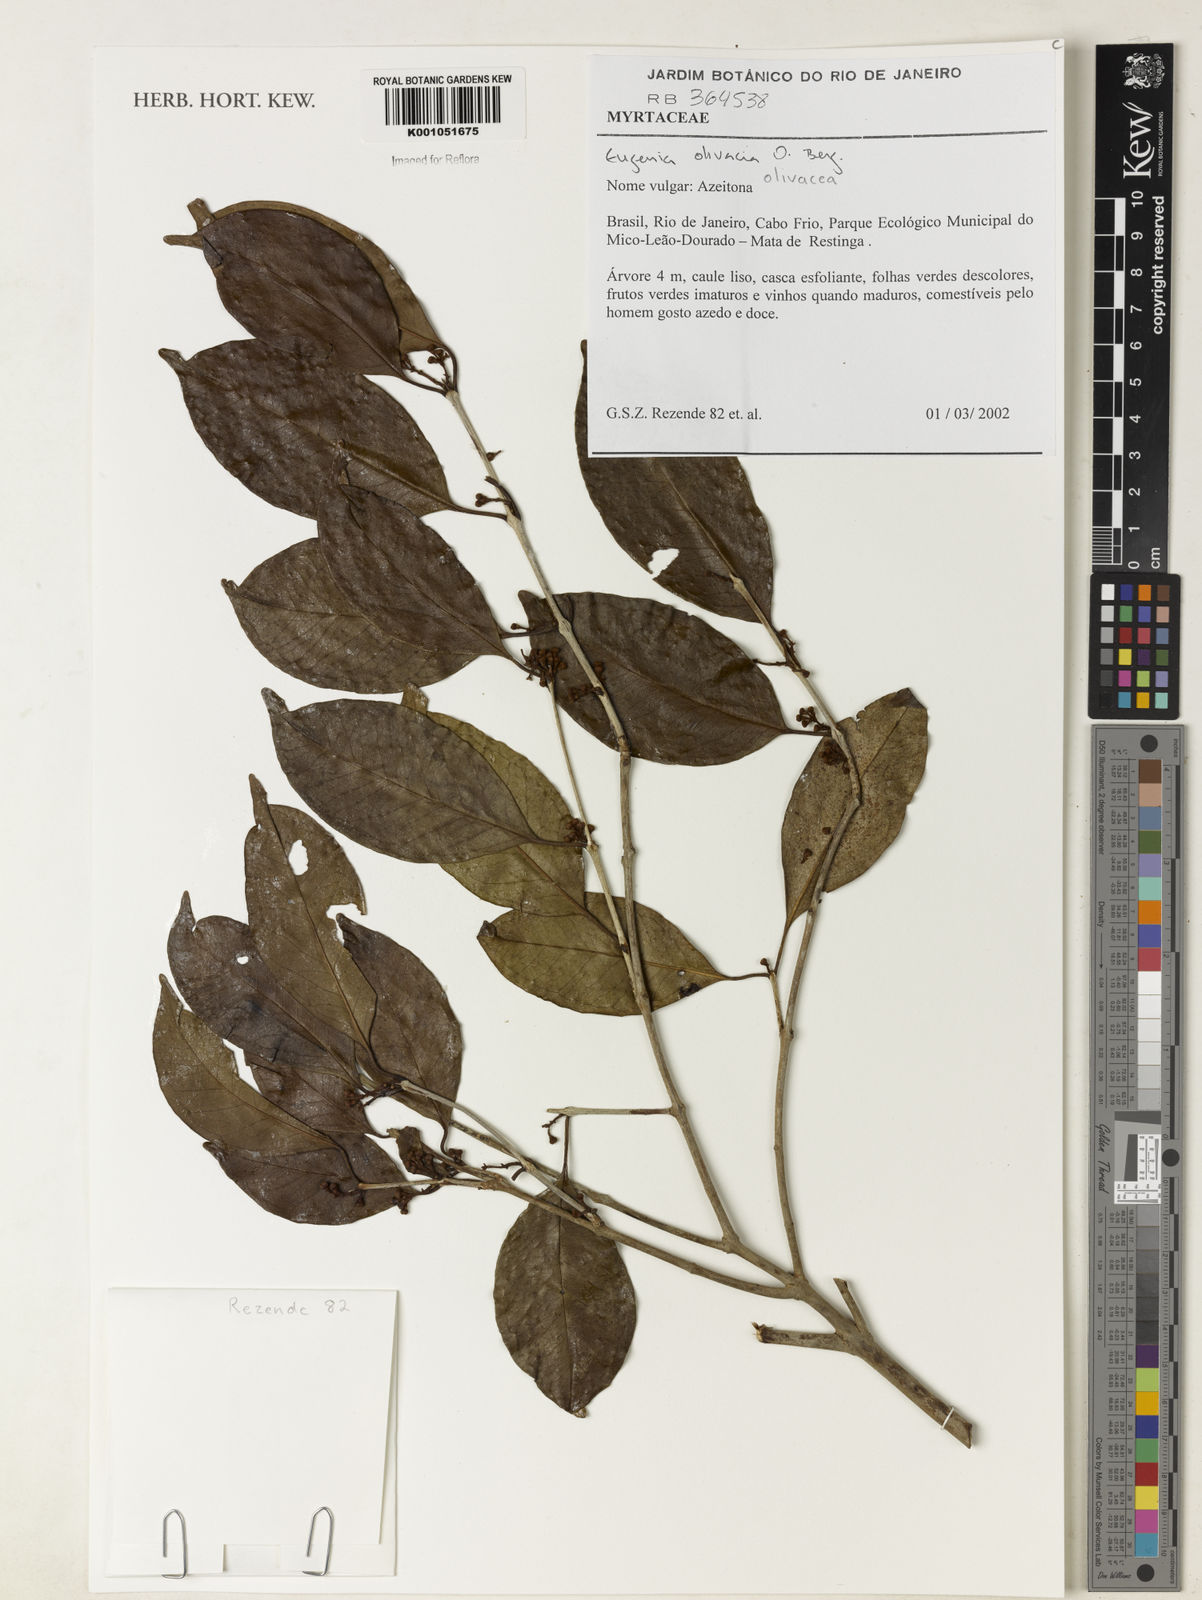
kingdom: Plantae
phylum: Tracheophyta
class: Magnoliopsida
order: Myrtales
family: Myrtaceae
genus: Eugenia
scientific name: Eugenia pruniformis
